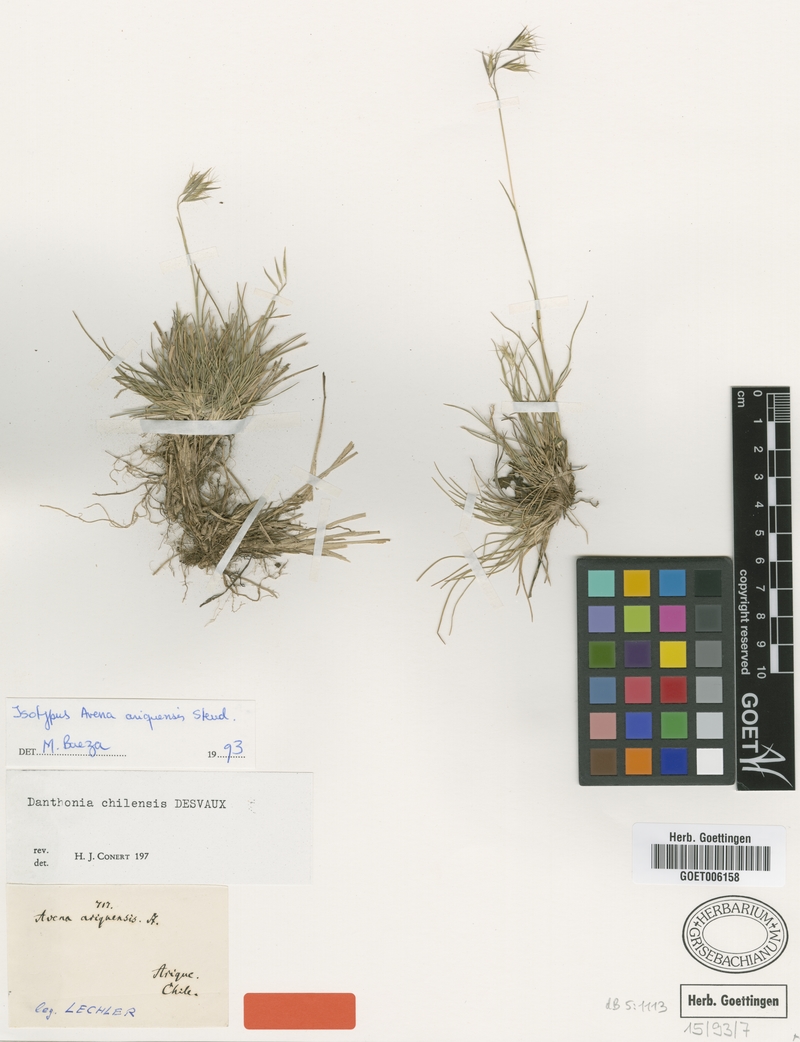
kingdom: Plantae
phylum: Tracheophyta
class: Liliopsida
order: Poales
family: Poaceae
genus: Danthonia
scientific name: Danthonia chilensis
